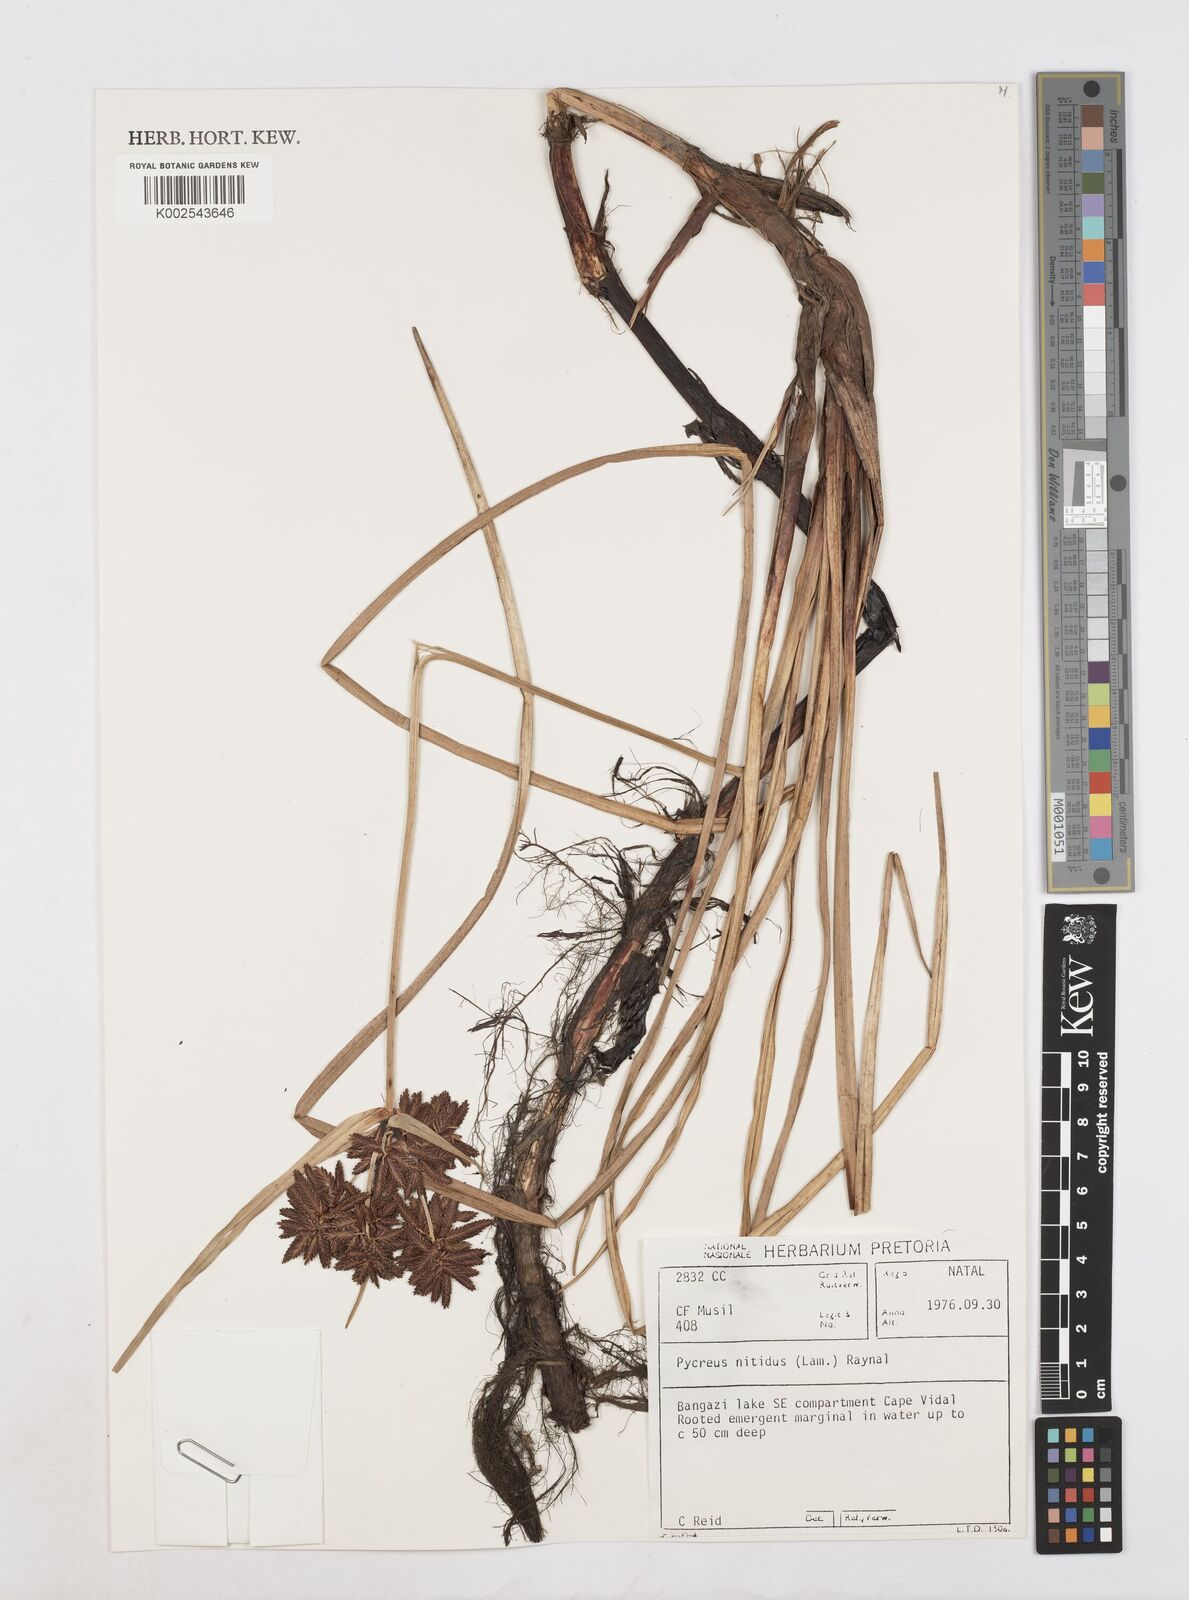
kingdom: Plantae
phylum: Tracheophyta
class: Liliopsida
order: Poales
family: Cyperaceae
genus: Cyperus
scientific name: Cyperus nitidus
